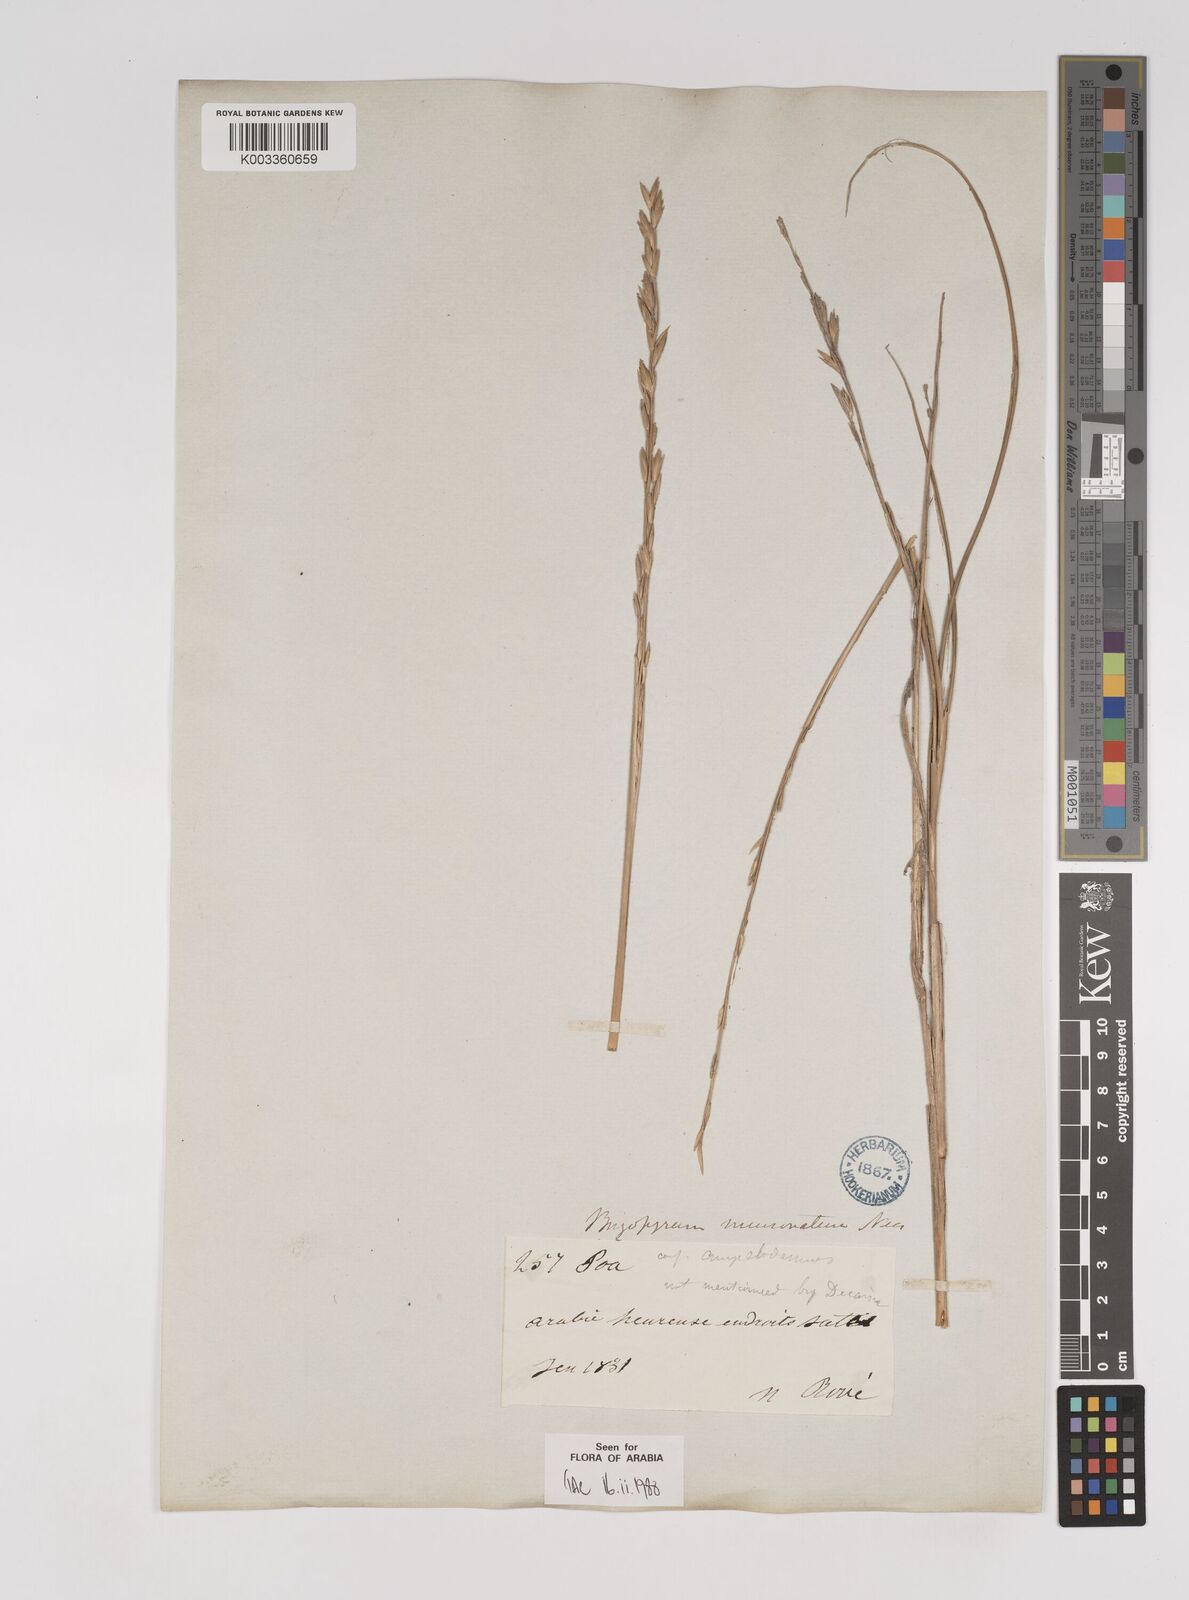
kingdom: Plantae
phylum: Tracheophyta
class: Liliopsida
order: Poales
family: Poaceae
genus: Halopyrum
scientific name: Halopyrum mucronatum
